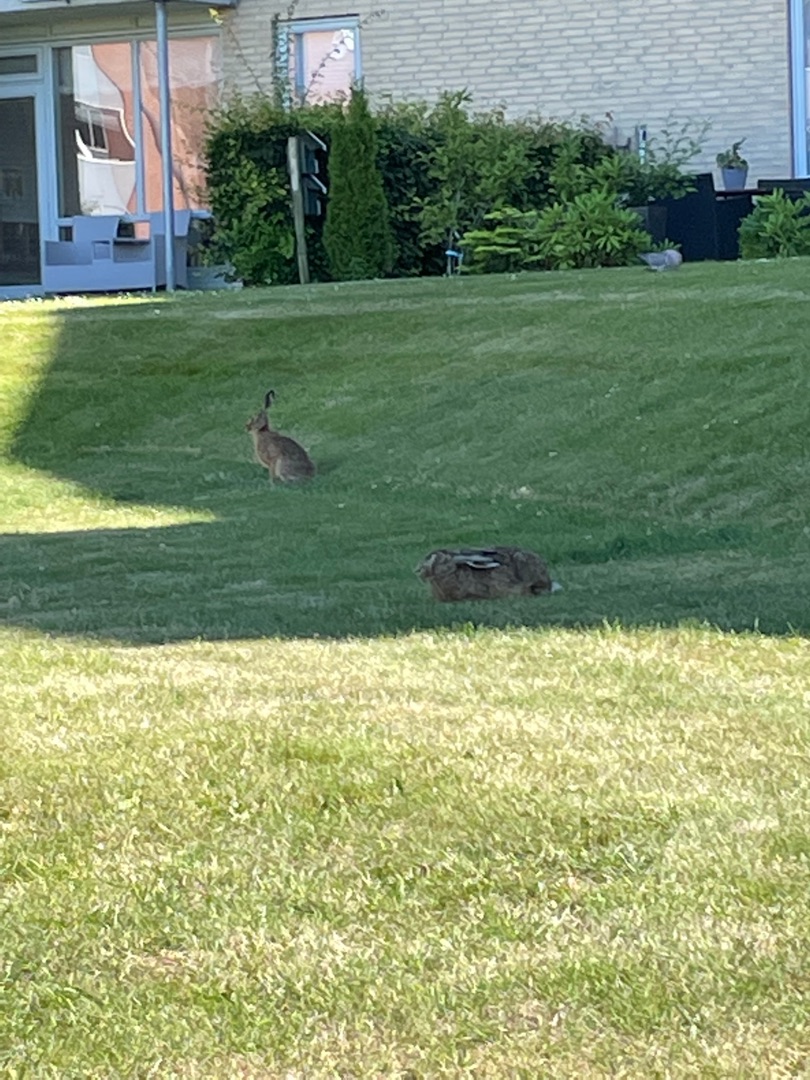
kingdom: Animalia
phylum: Chordata
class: Mammalia
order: Lagomorpha
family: Leporidae
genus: Lepus
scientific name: Lepus europaeus
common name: Hare
